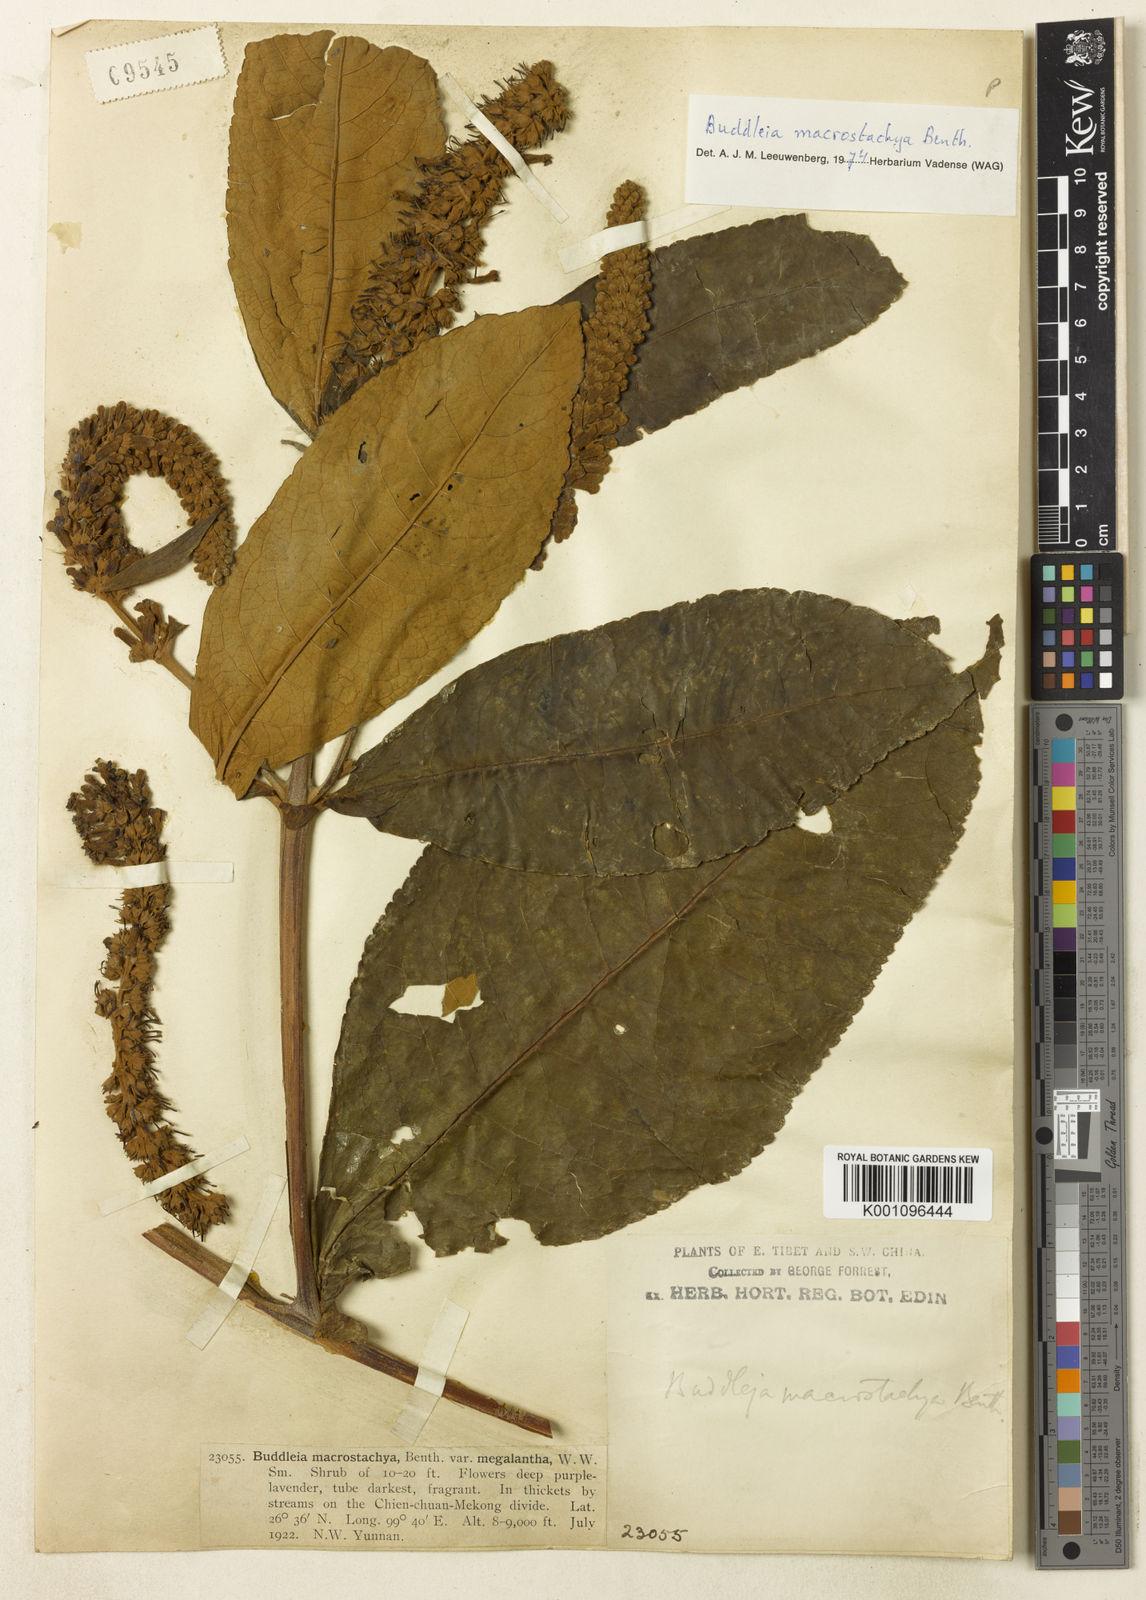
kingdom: Plantae
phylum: Tracheophyta
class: Magnoliopsida
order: Lamiales
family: Scrophulariaceae
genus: Buddleja
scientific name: Buddleja macrostachya
